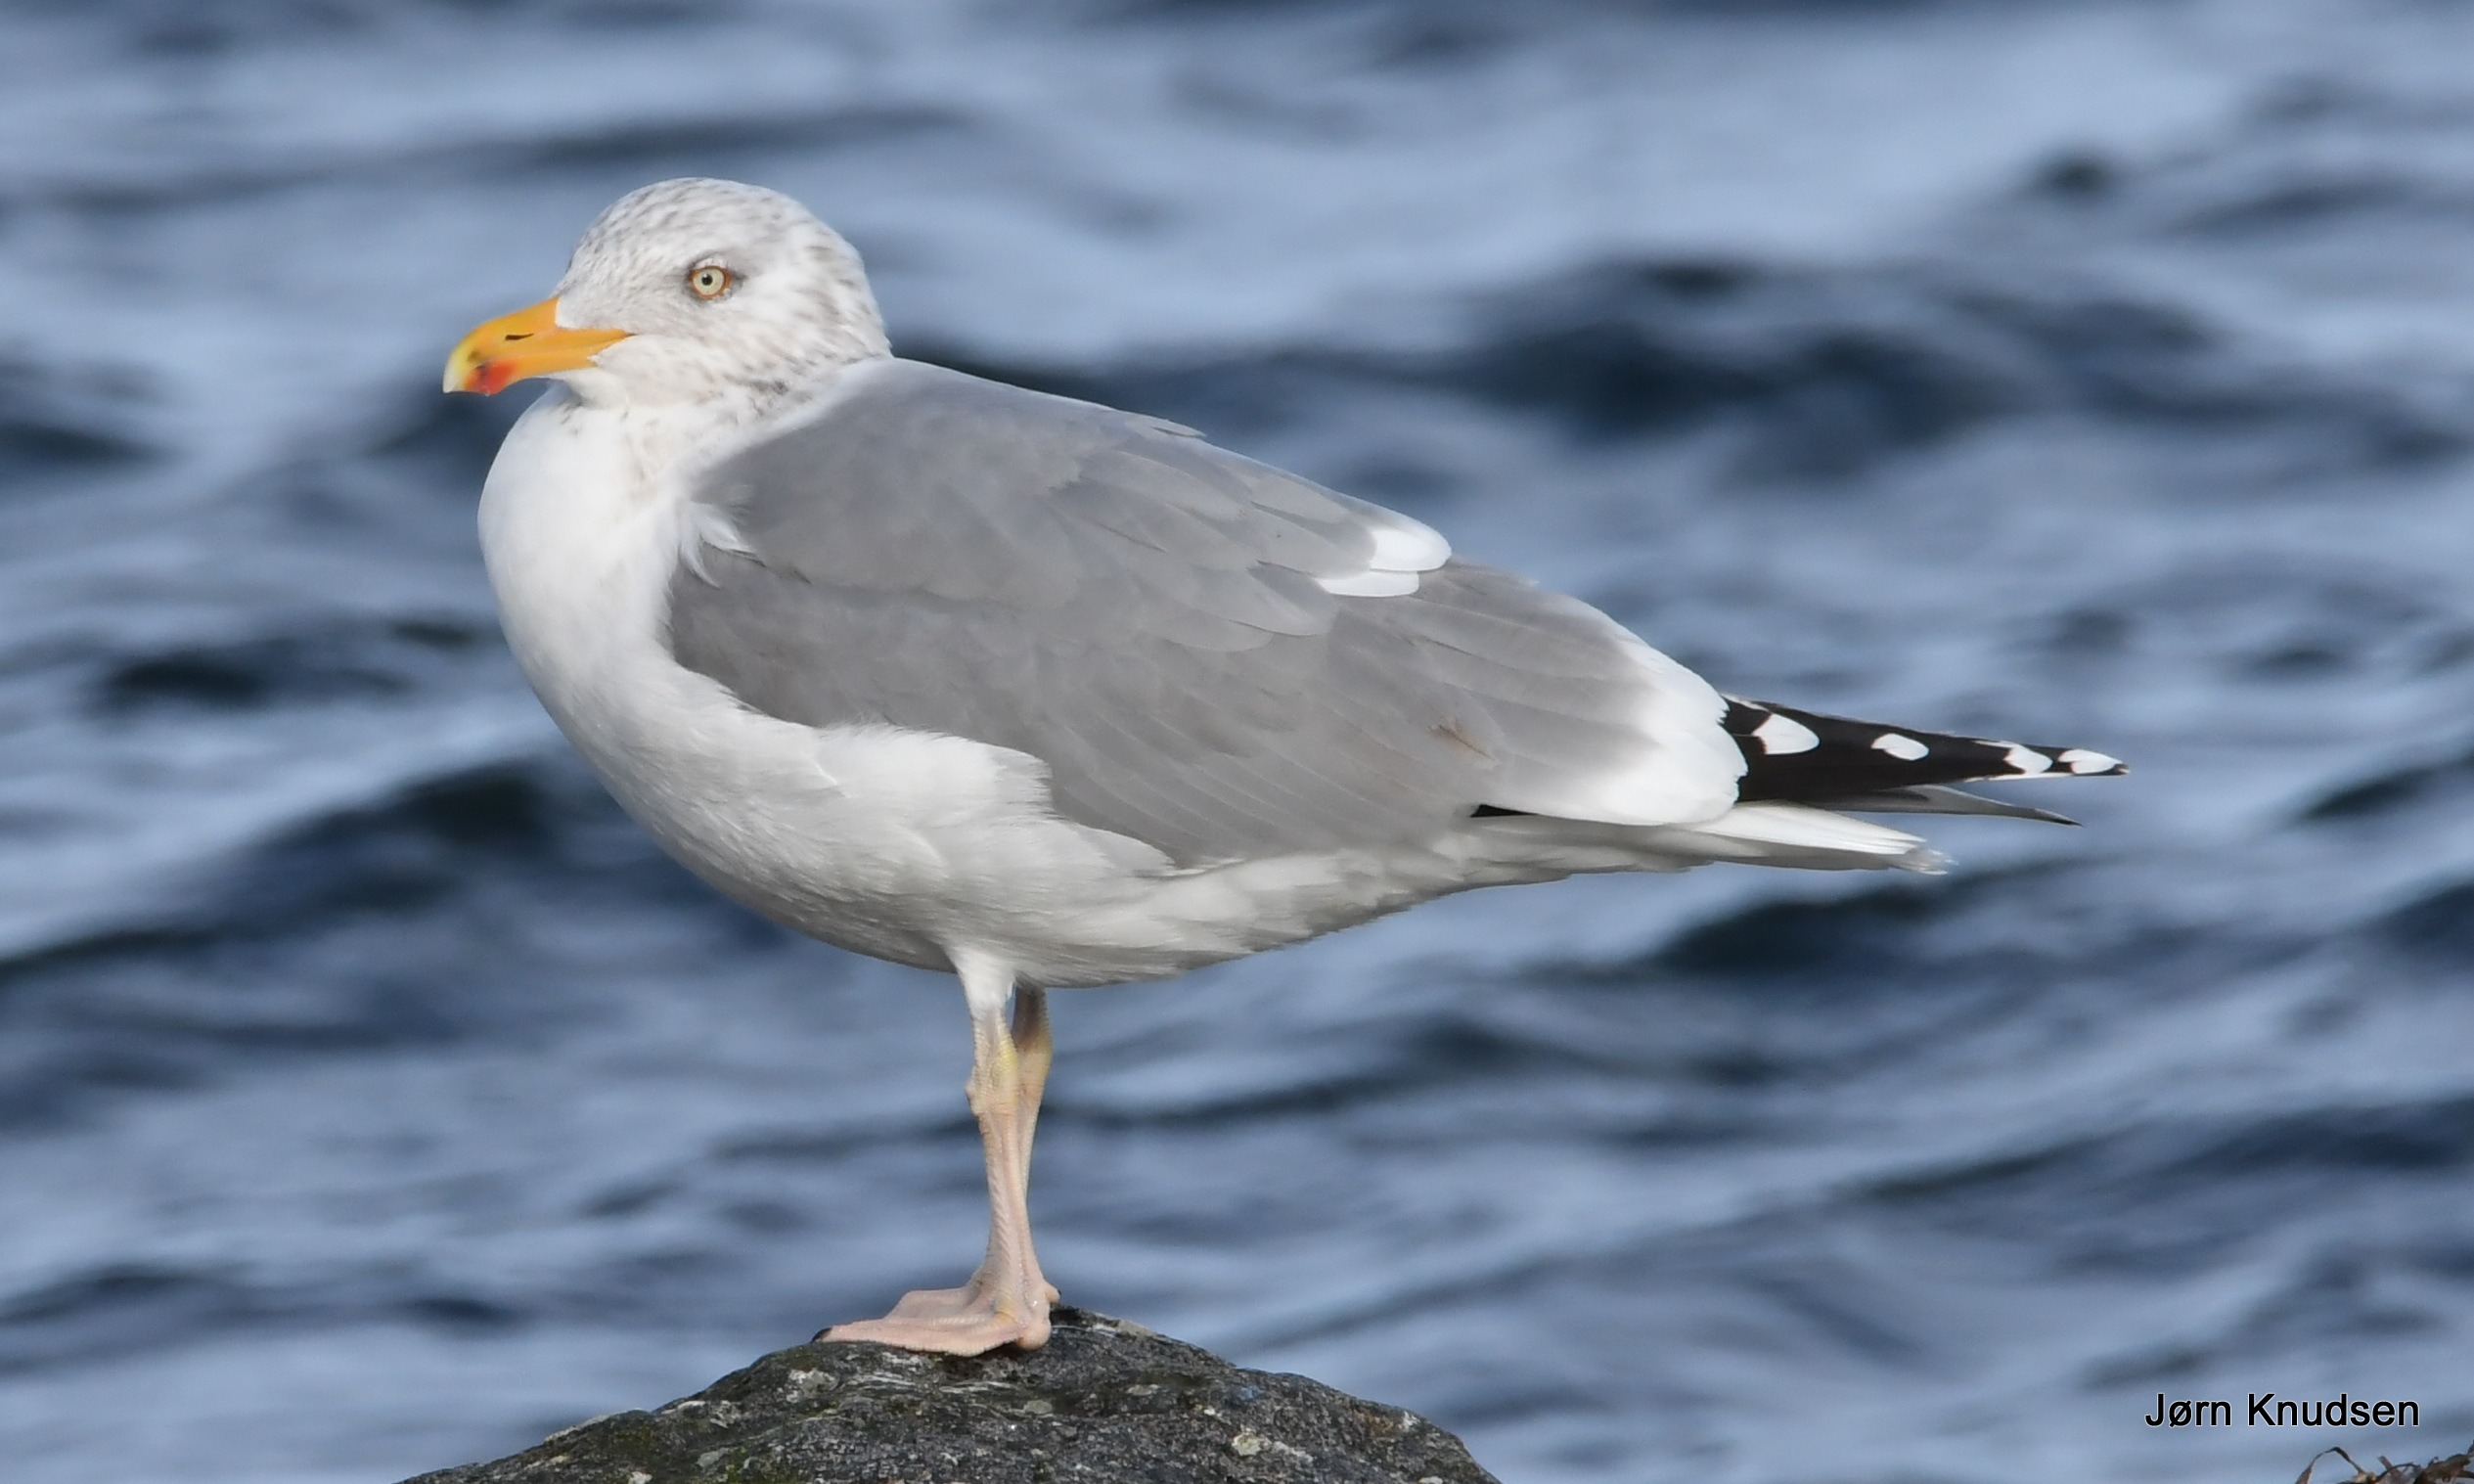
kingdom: Animalia
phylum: Chordata
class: Aves
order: Charadriiformes
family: Laridae
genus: Larus
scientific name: Larus argentatus
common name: Sølvmåge
